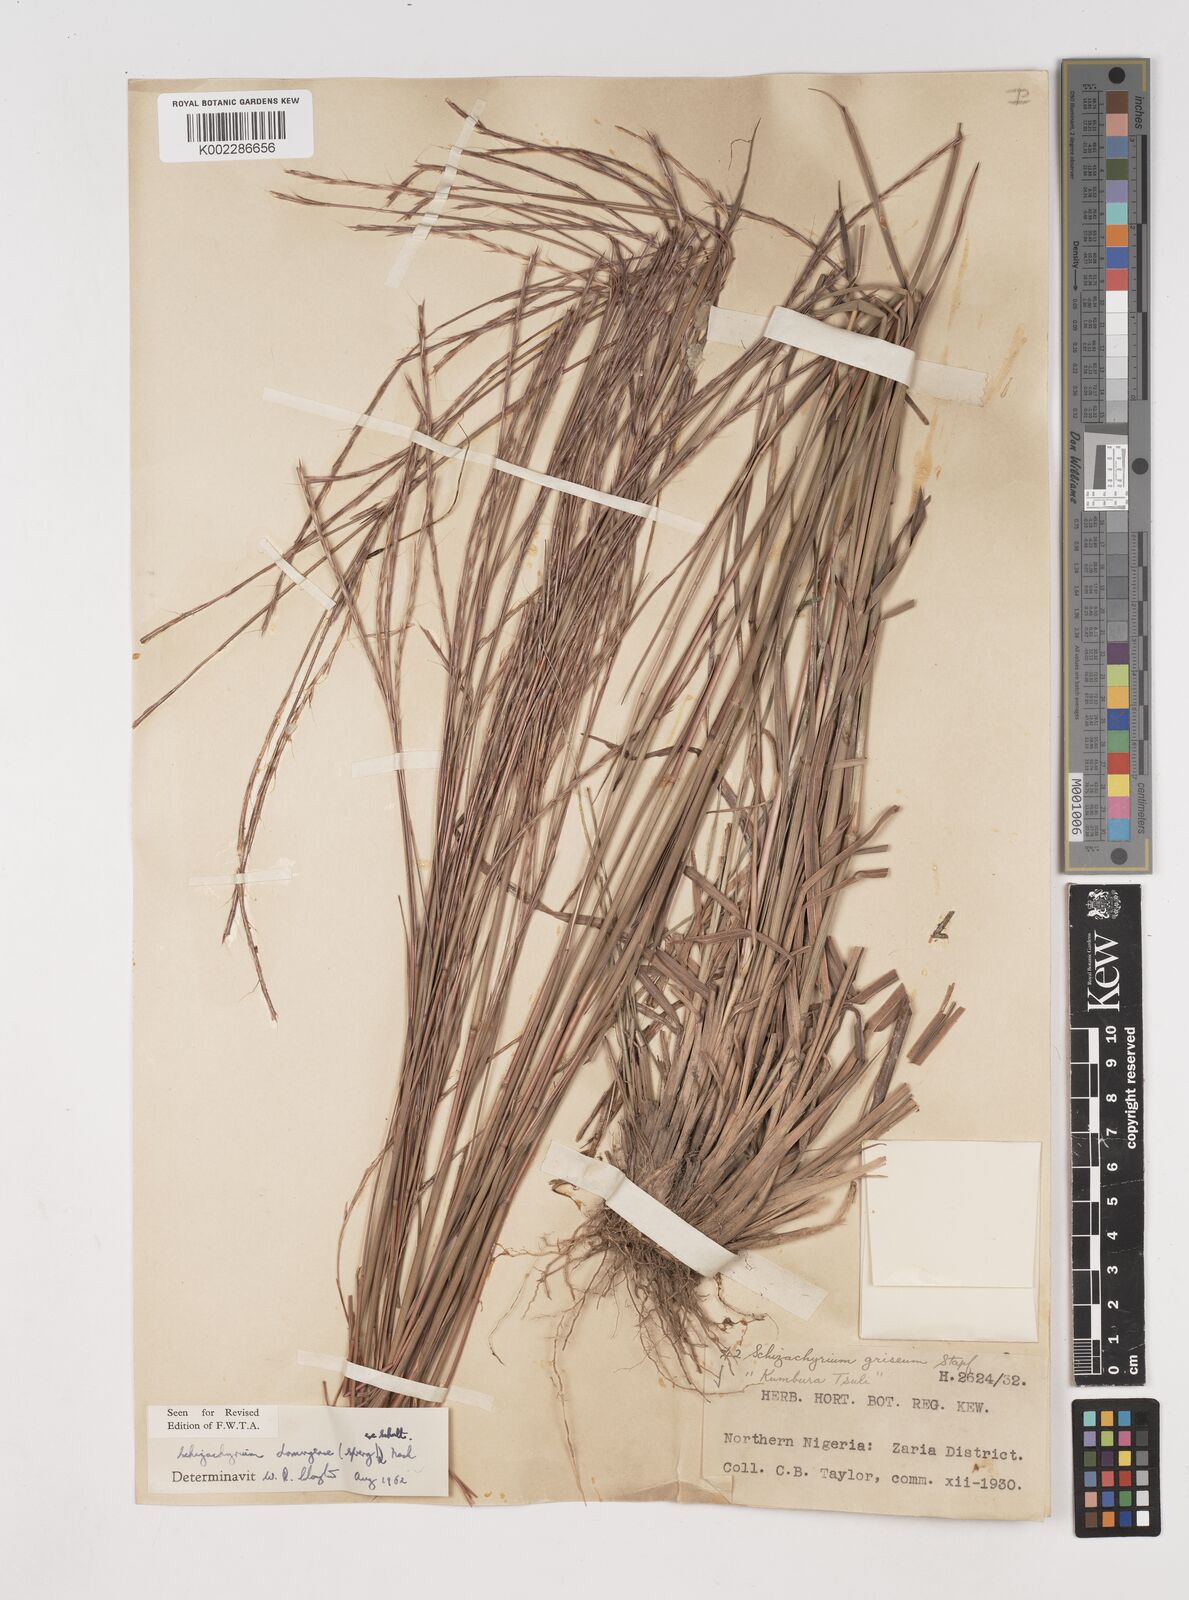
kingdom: Plantae
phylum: Tracheophyta
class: Liliopsida
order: Poales
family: Poaceae
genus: Schizachyrium
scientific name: Schizachyrium sanguineum
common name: Crimson bluestem
